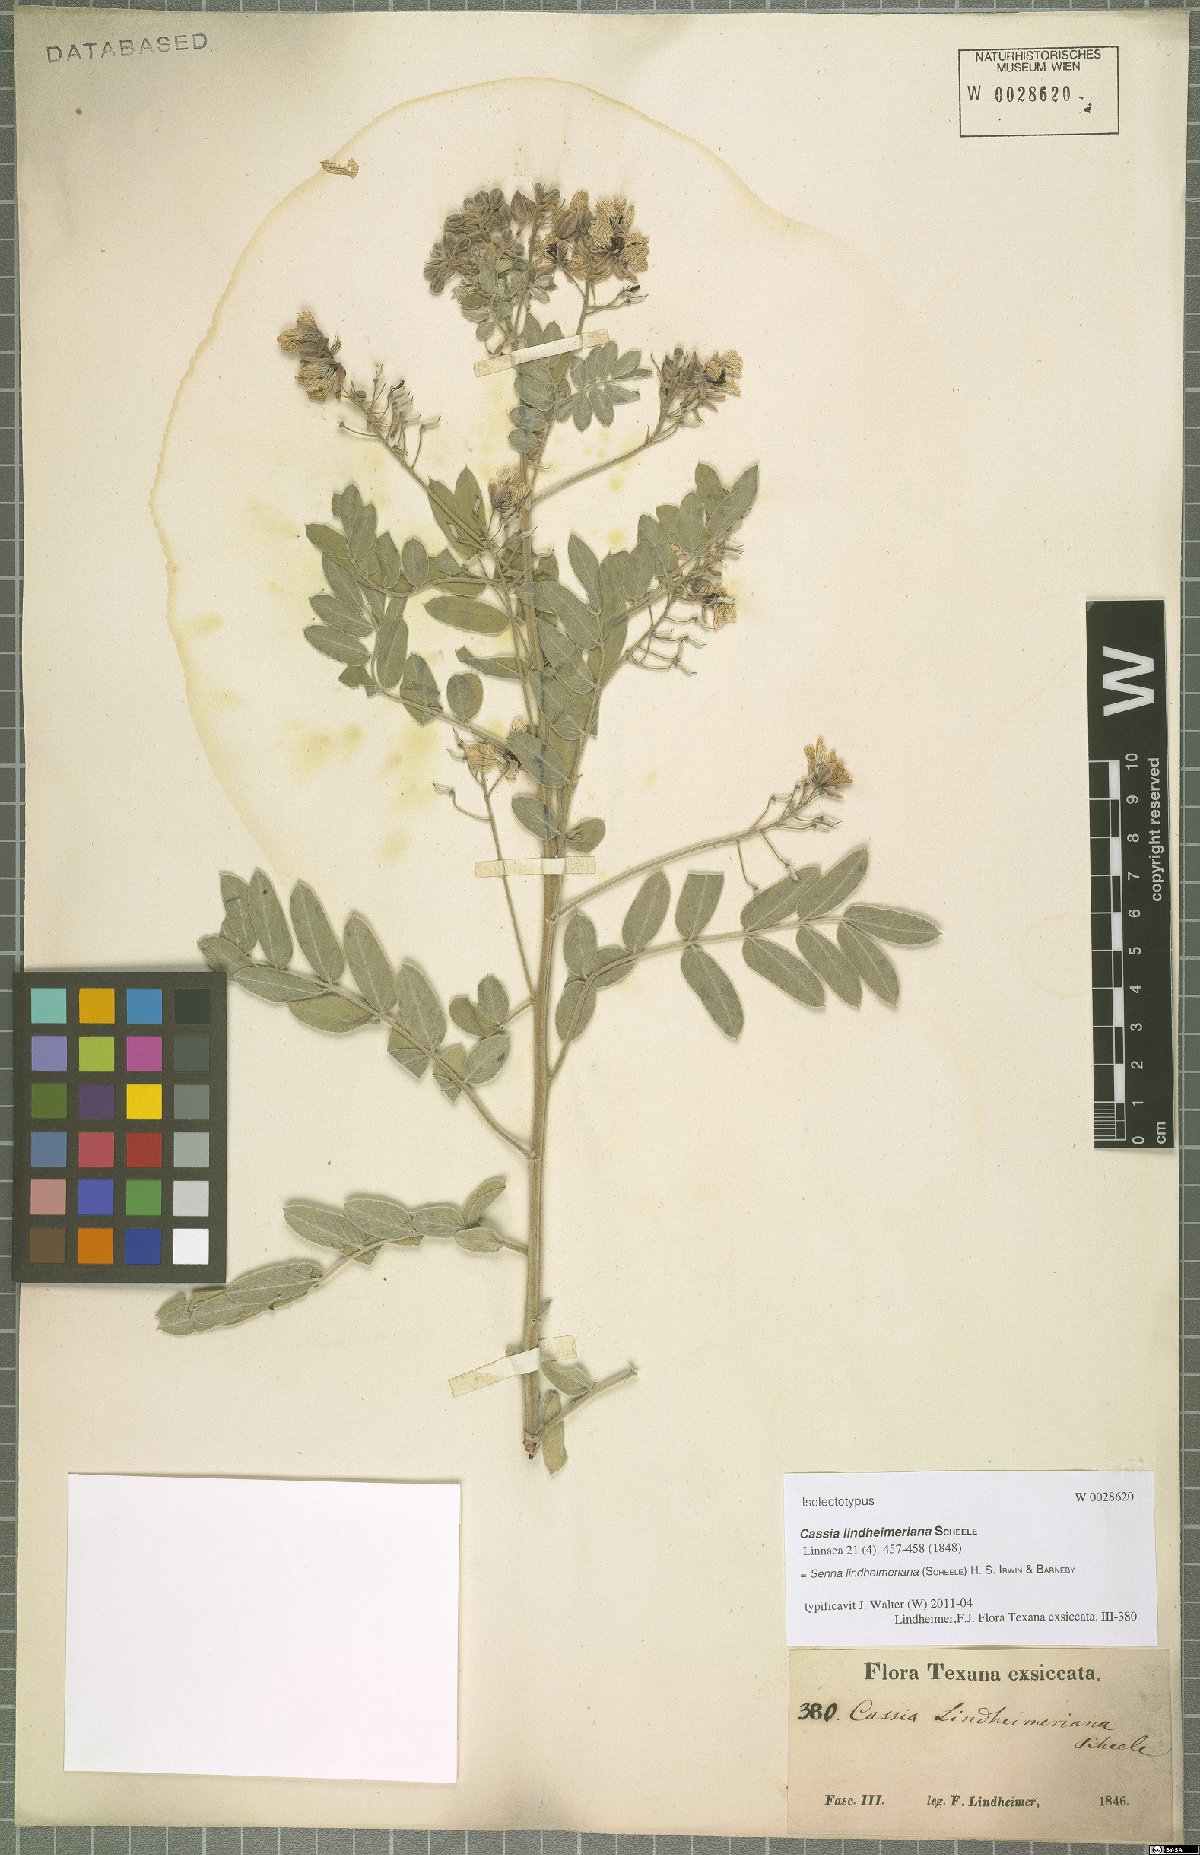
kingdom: Plantae
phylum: Tracheophyta
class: Magnoliopsida
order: Fabales
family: Fabaceae
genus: Senna
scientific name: Senna lindheimeriana
